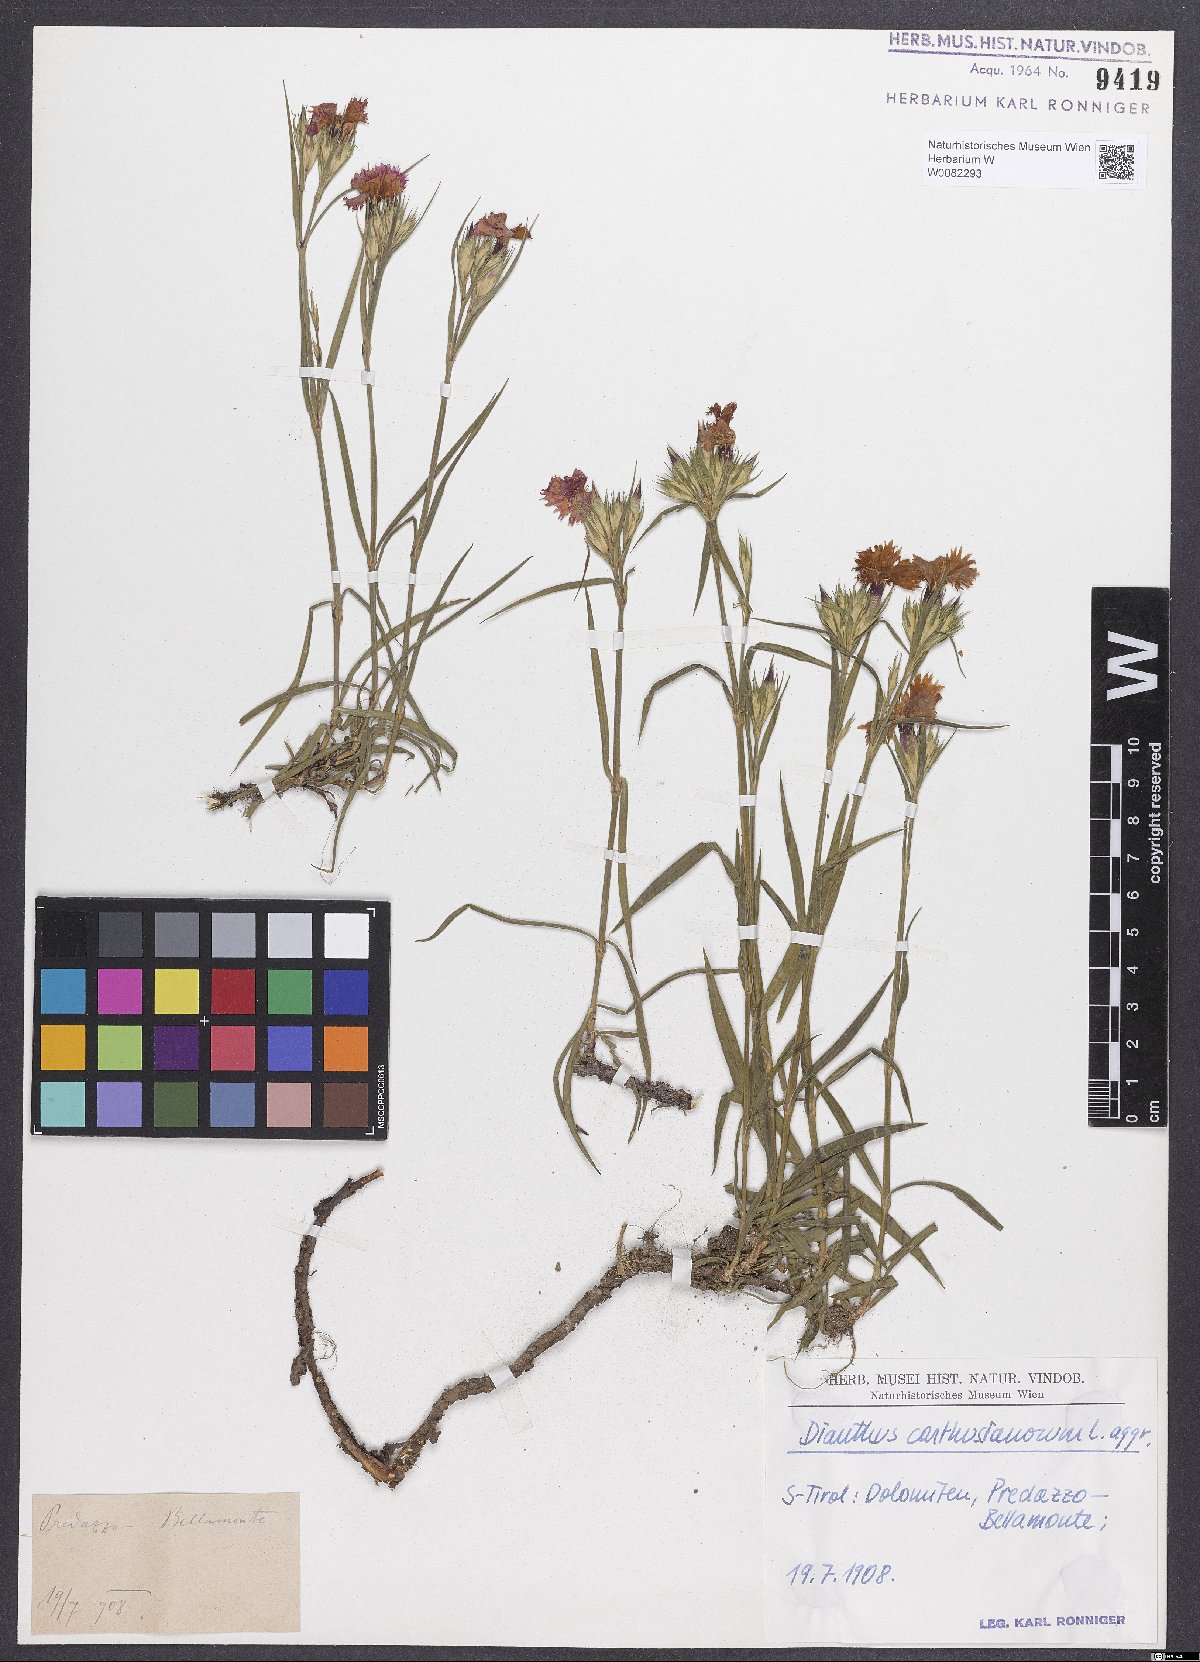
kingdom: Plantae
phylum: Tracheophyta
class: Magnoliopsida
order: Caryophyllales
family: Caryophyllaceae
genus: Dianthus
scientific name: Dianthus carthusianorum
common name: Carthusian pink
